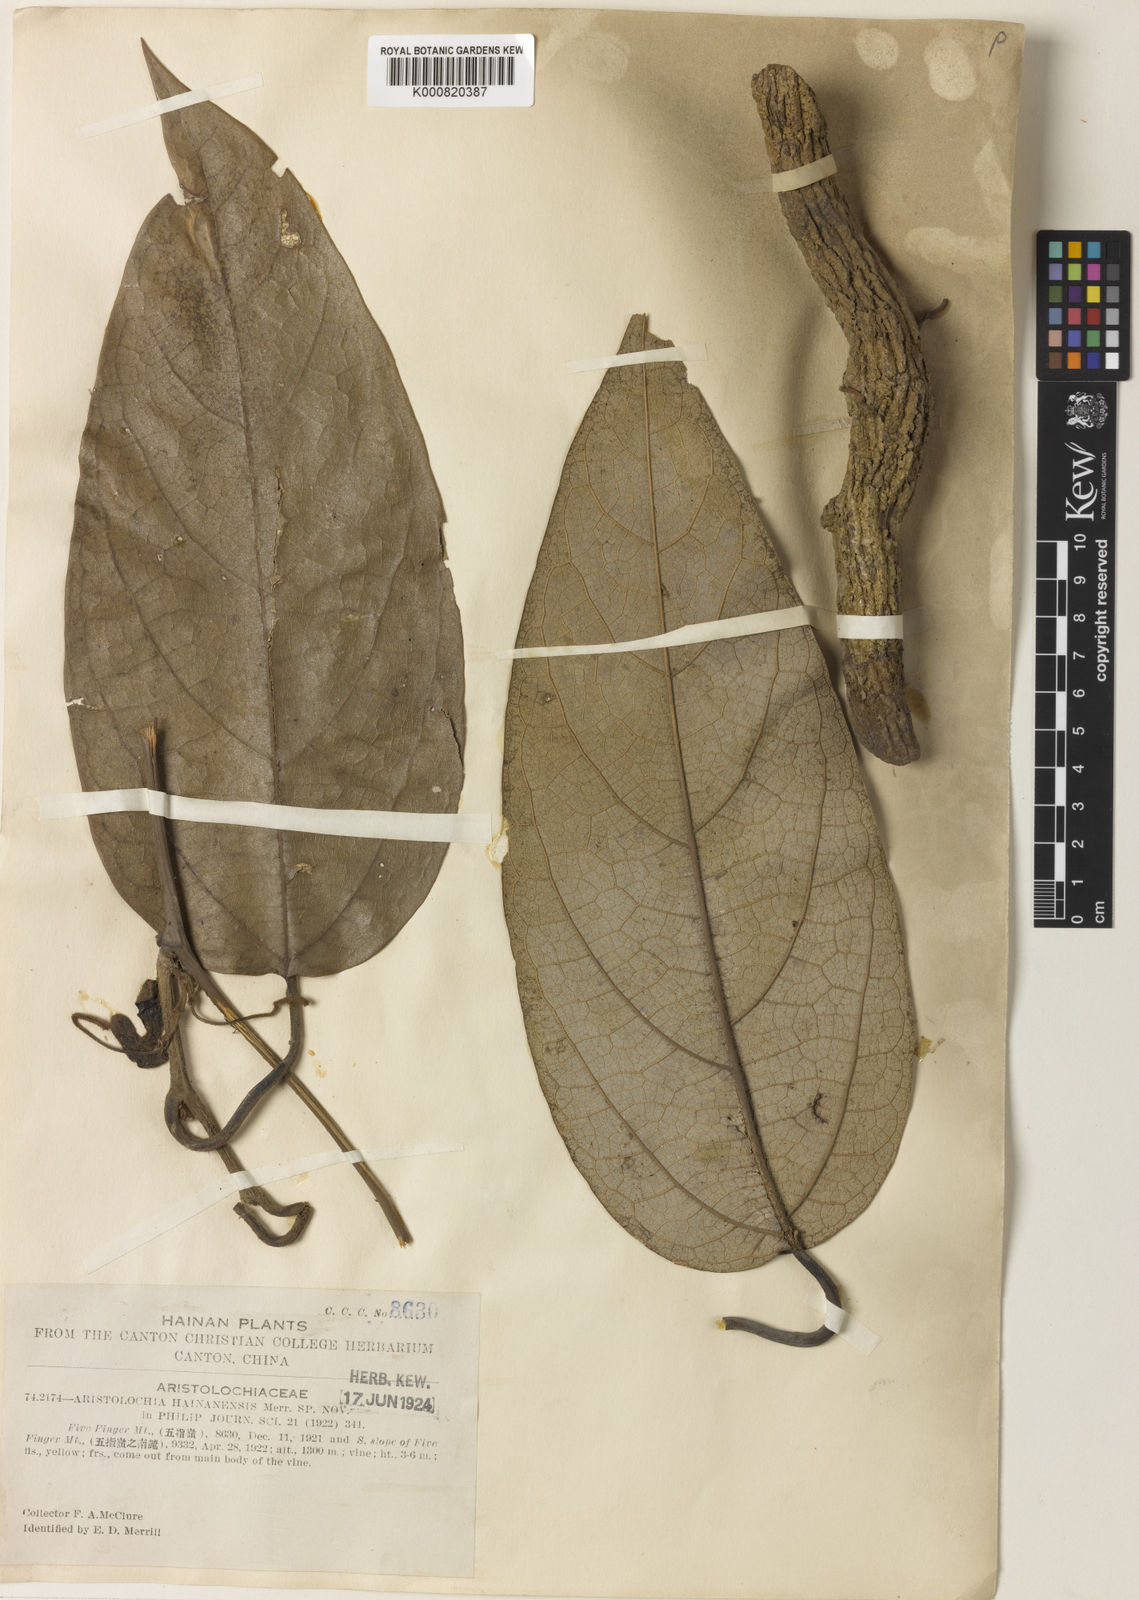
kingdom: Plantae
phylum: Tracheophyta
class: Magnoliopsida
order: Piperales
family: Aristolochiaceae
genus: Isotrema
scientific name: Isotrema
